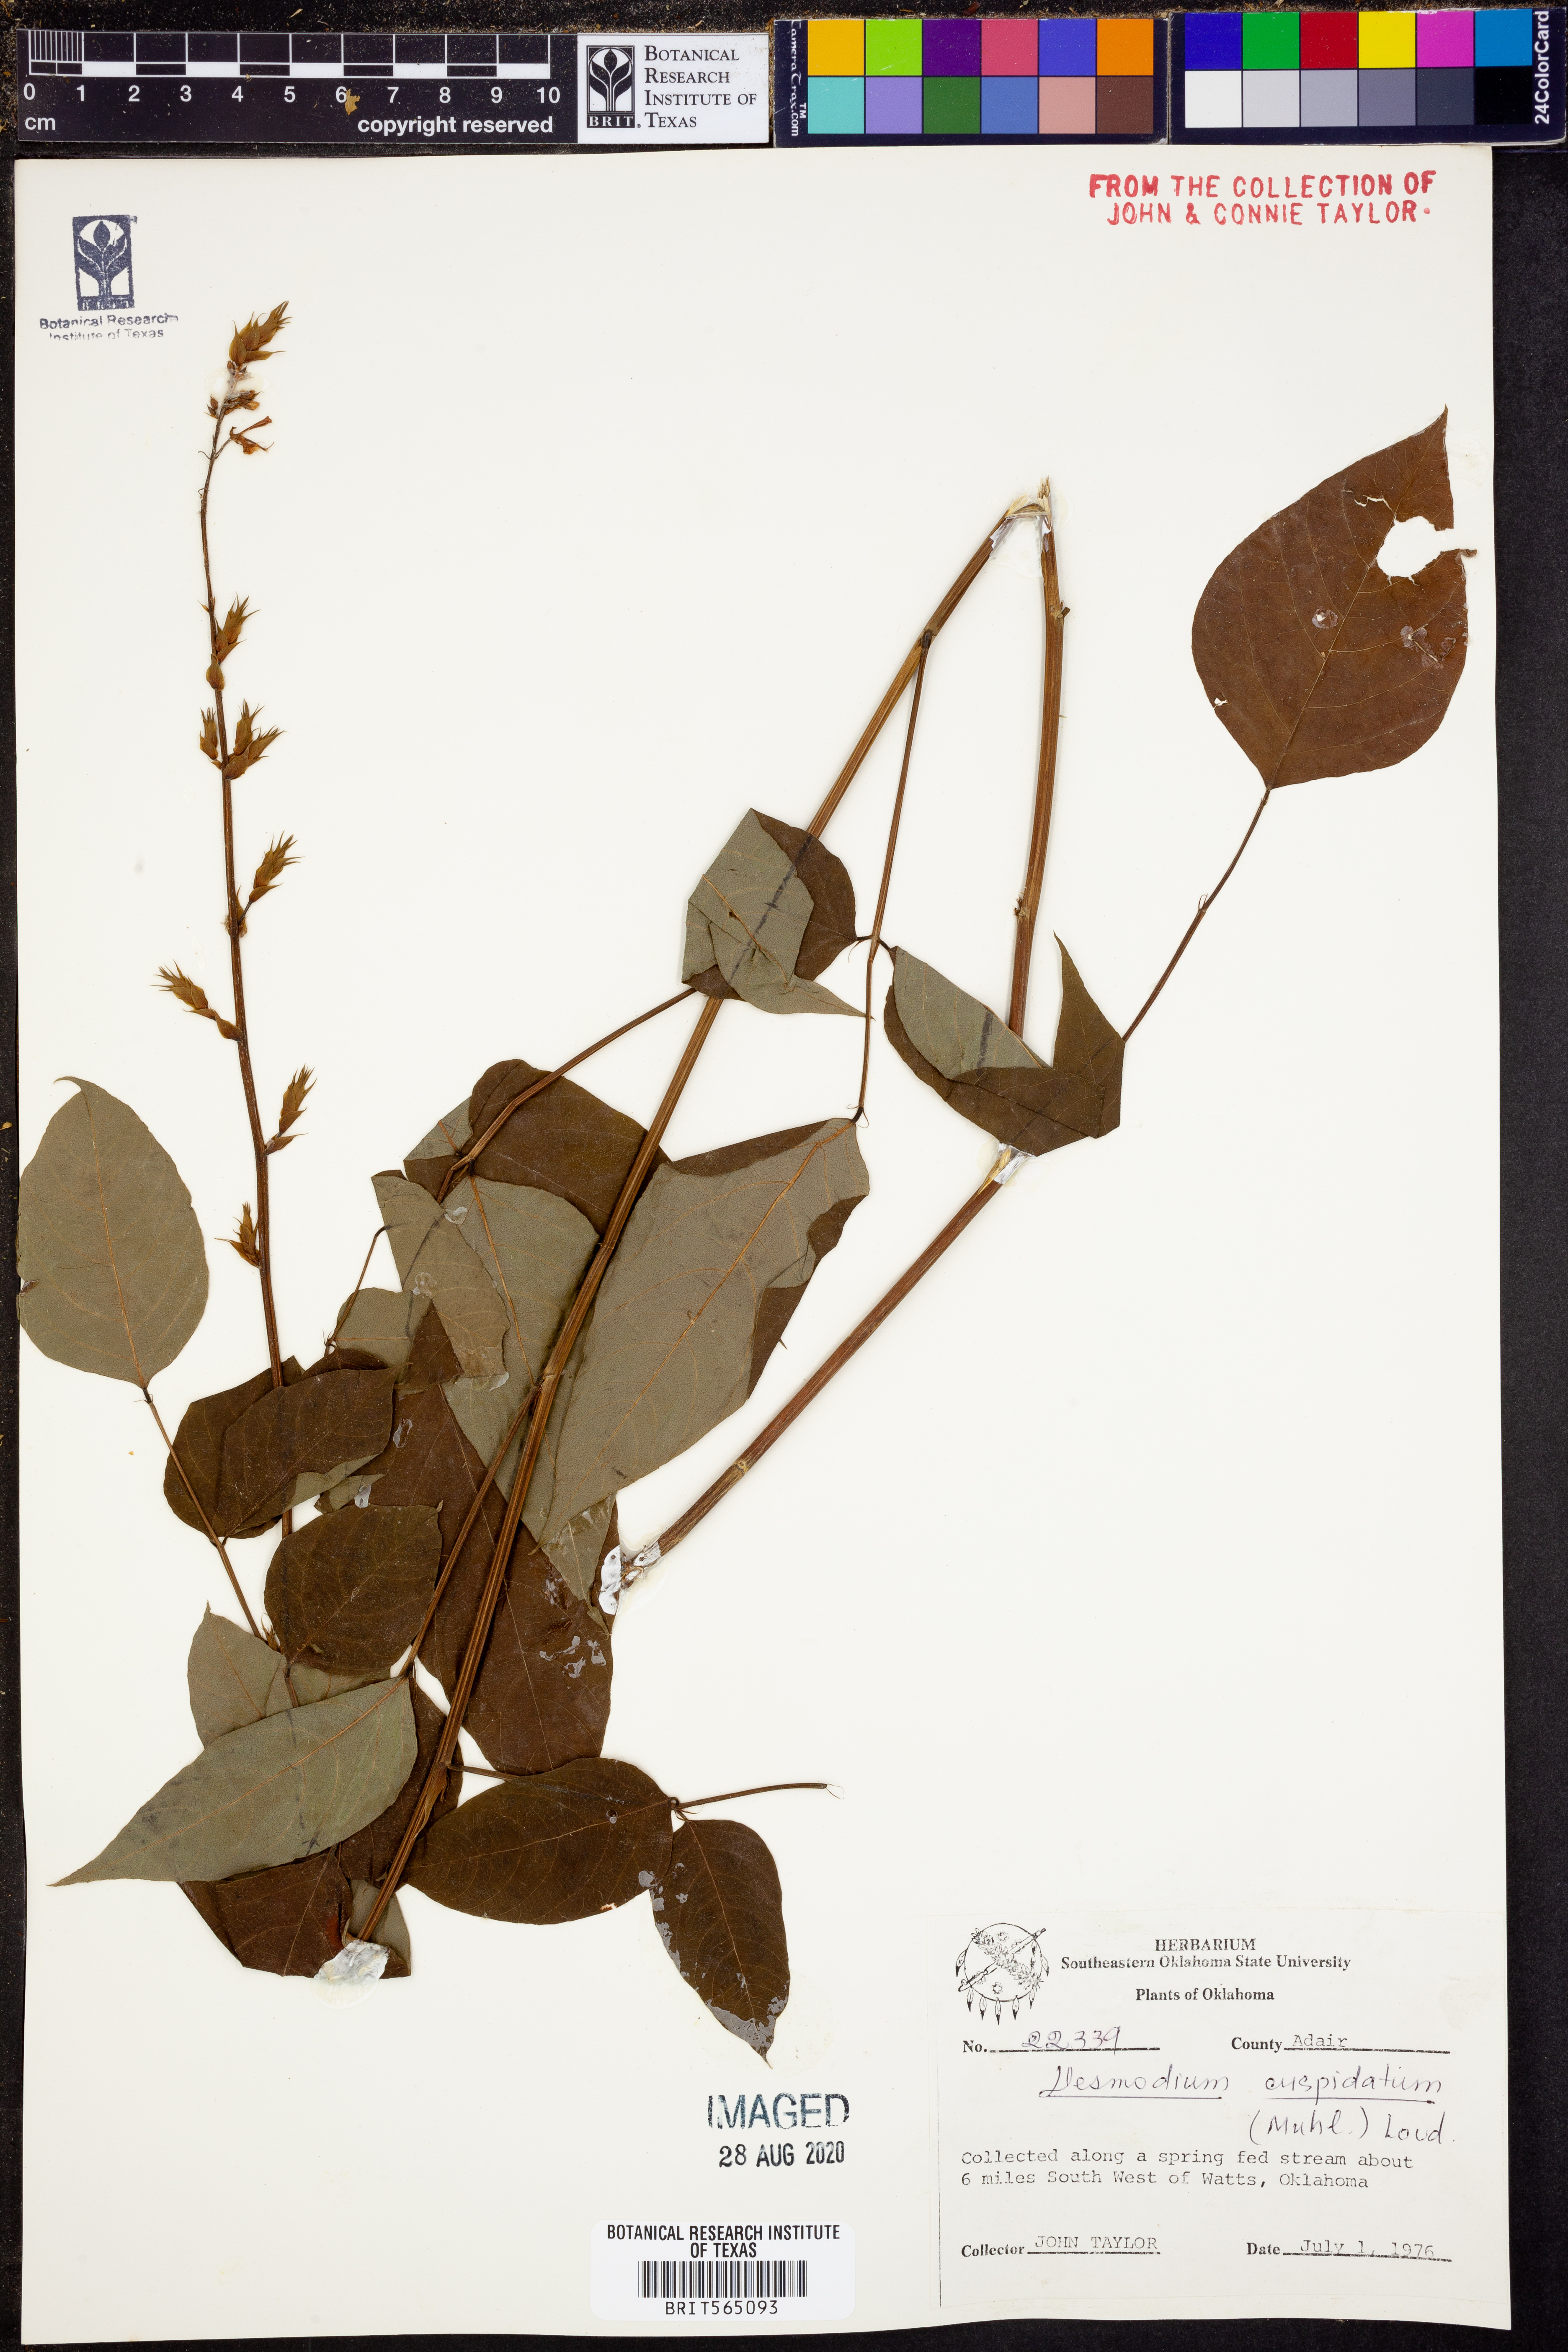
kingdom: Plantae
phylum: Tracheophyta
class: Magnoliopsida
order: Fabales
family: Fabaceae
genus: Desmodium
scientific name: Desmodium cuspidatum
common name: Big tick trefoil
